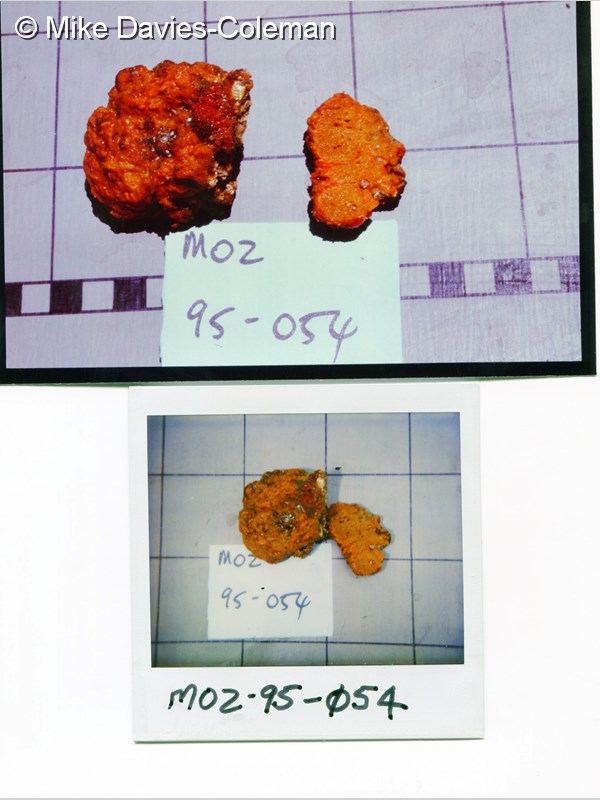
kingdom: Animalia
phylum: Porifera
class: Demospongiae
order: Axinellida
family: Axinellidae
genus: Axinella
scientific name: Axinella
